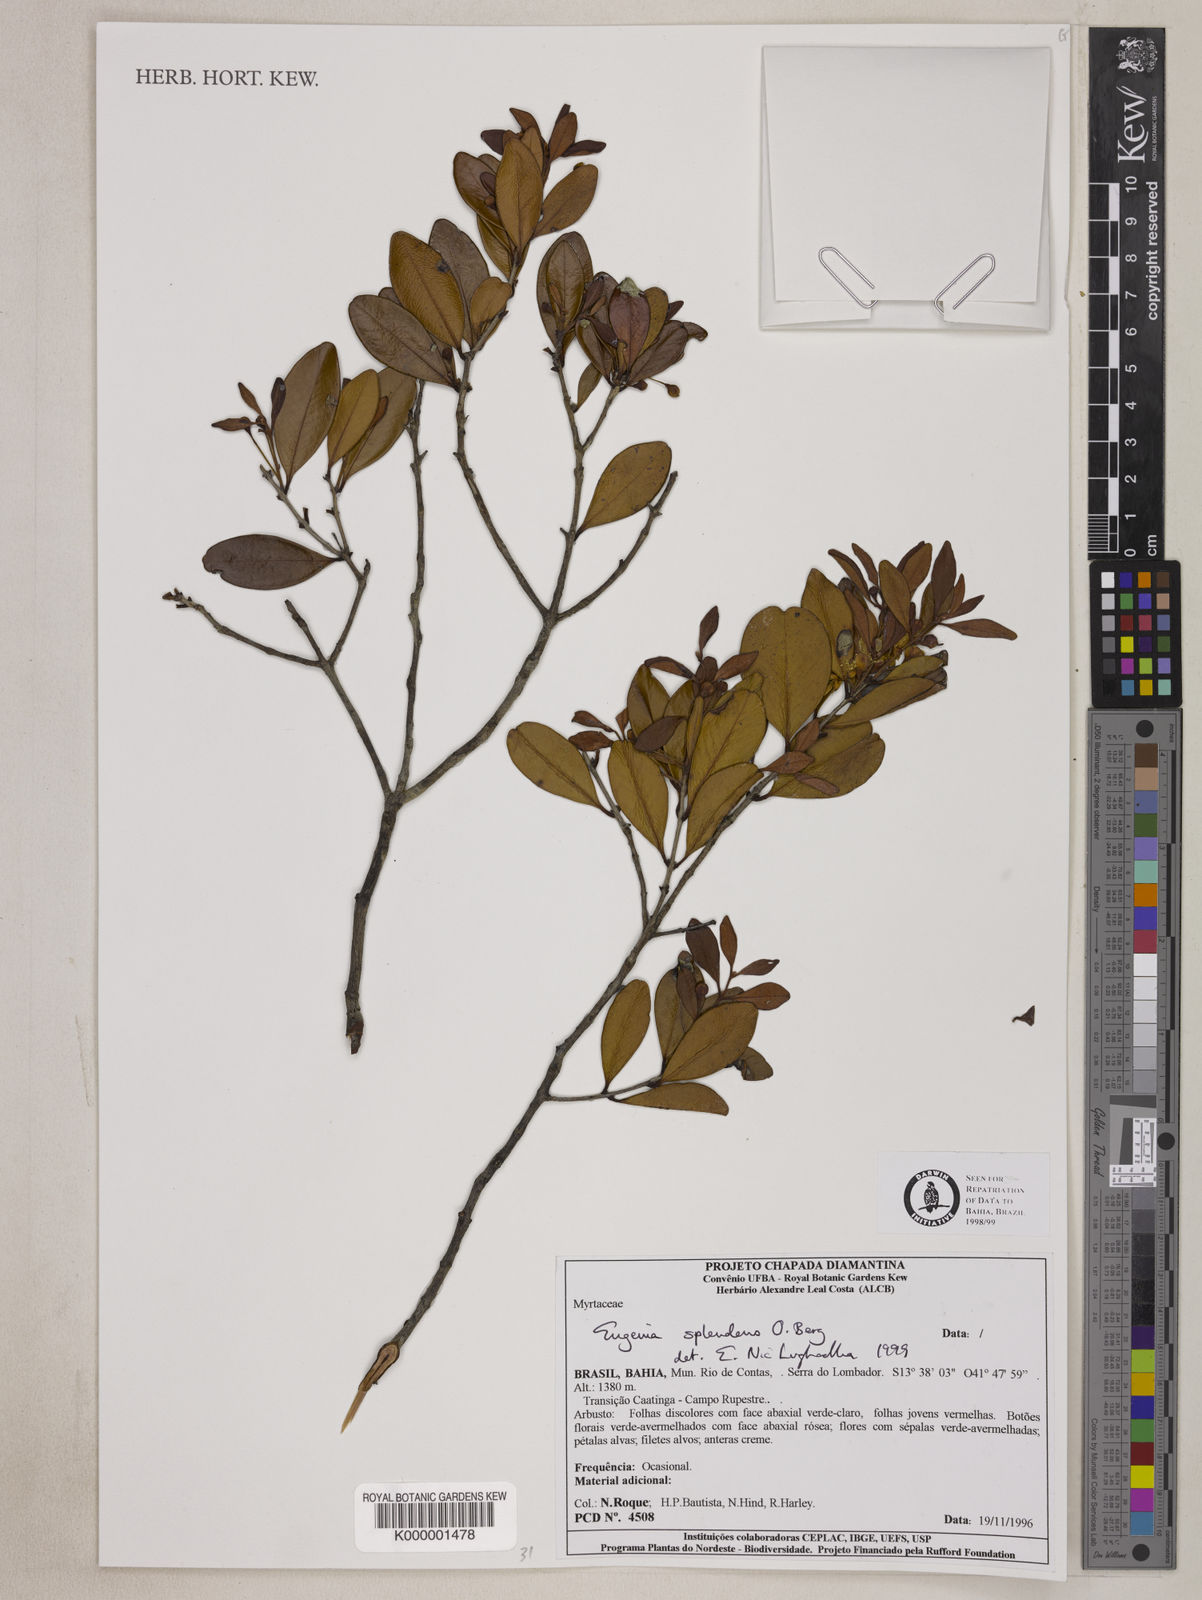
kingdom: Plantae
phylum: Tracheophyta
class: Magnoliopsida
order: Myrtales
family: Myrtaceae
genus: Eugenia
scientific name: Eugenia splendens
